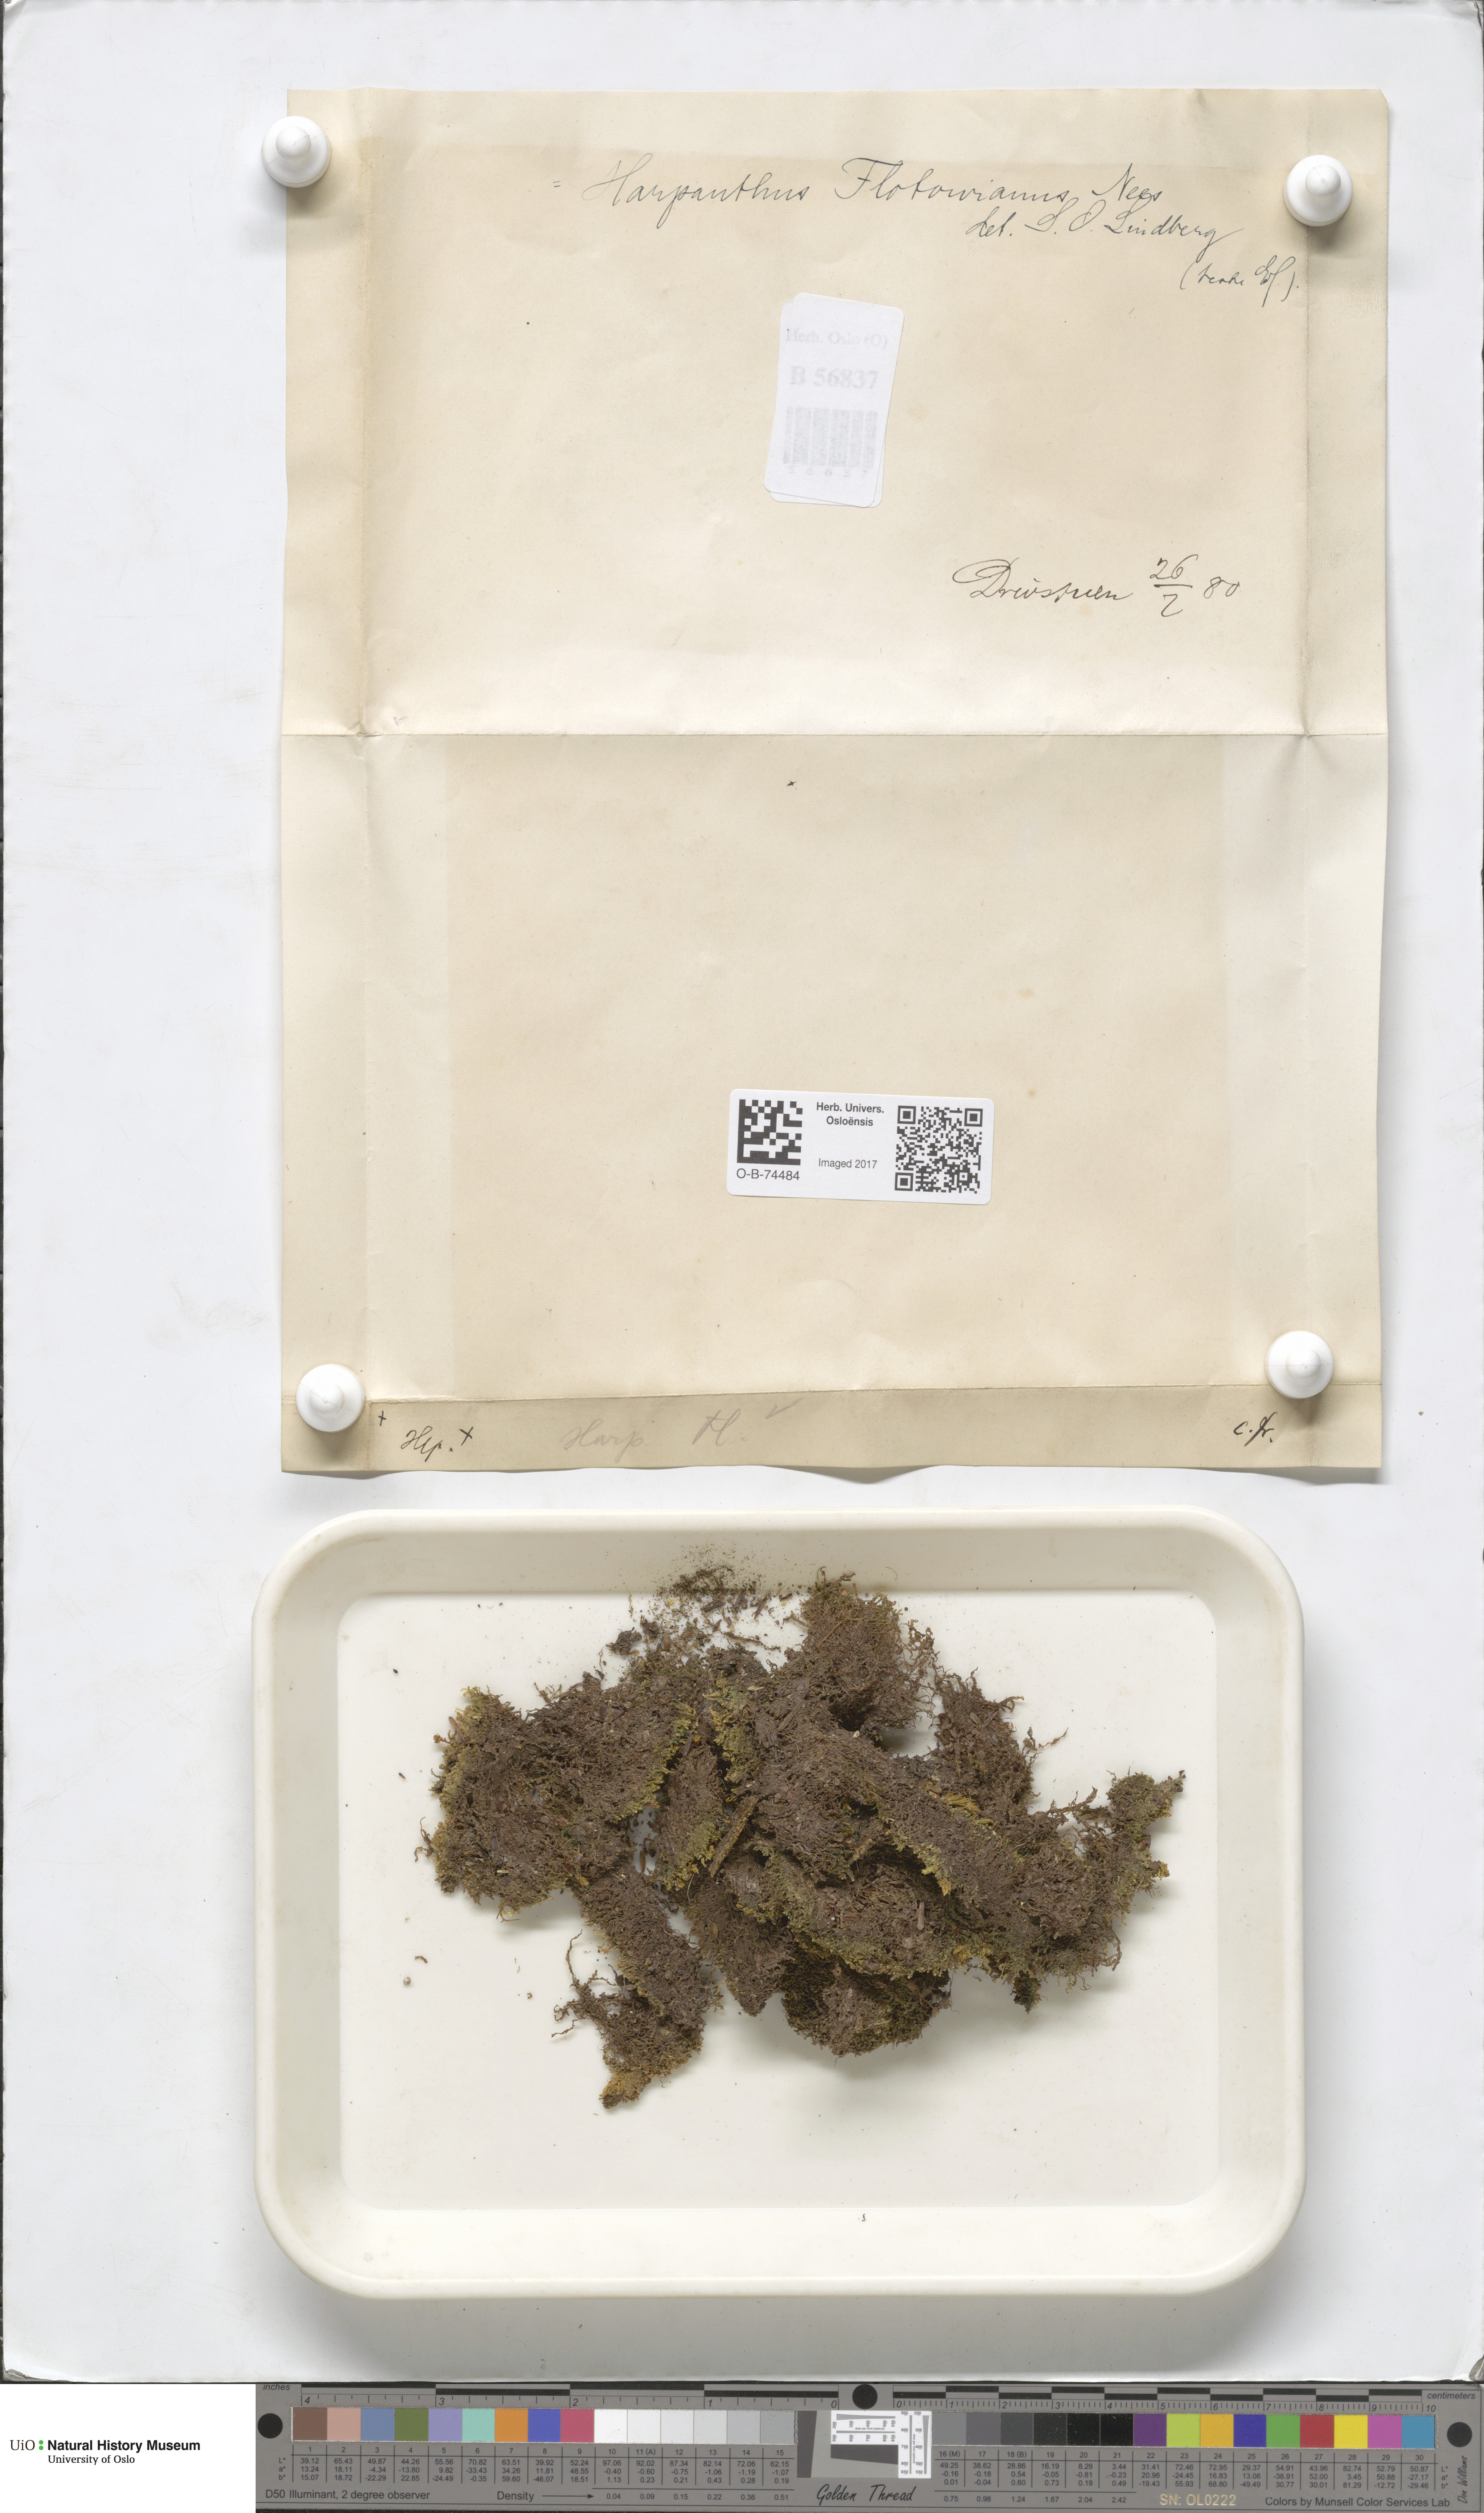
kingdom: Plantae
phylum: Marchantiophyta
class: Jungermanniopsida
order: Jungermanniales
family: Harpanthaceae
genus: Harpanthus
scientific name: Harpanthus flotovianus
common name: Great mountain flapwort
